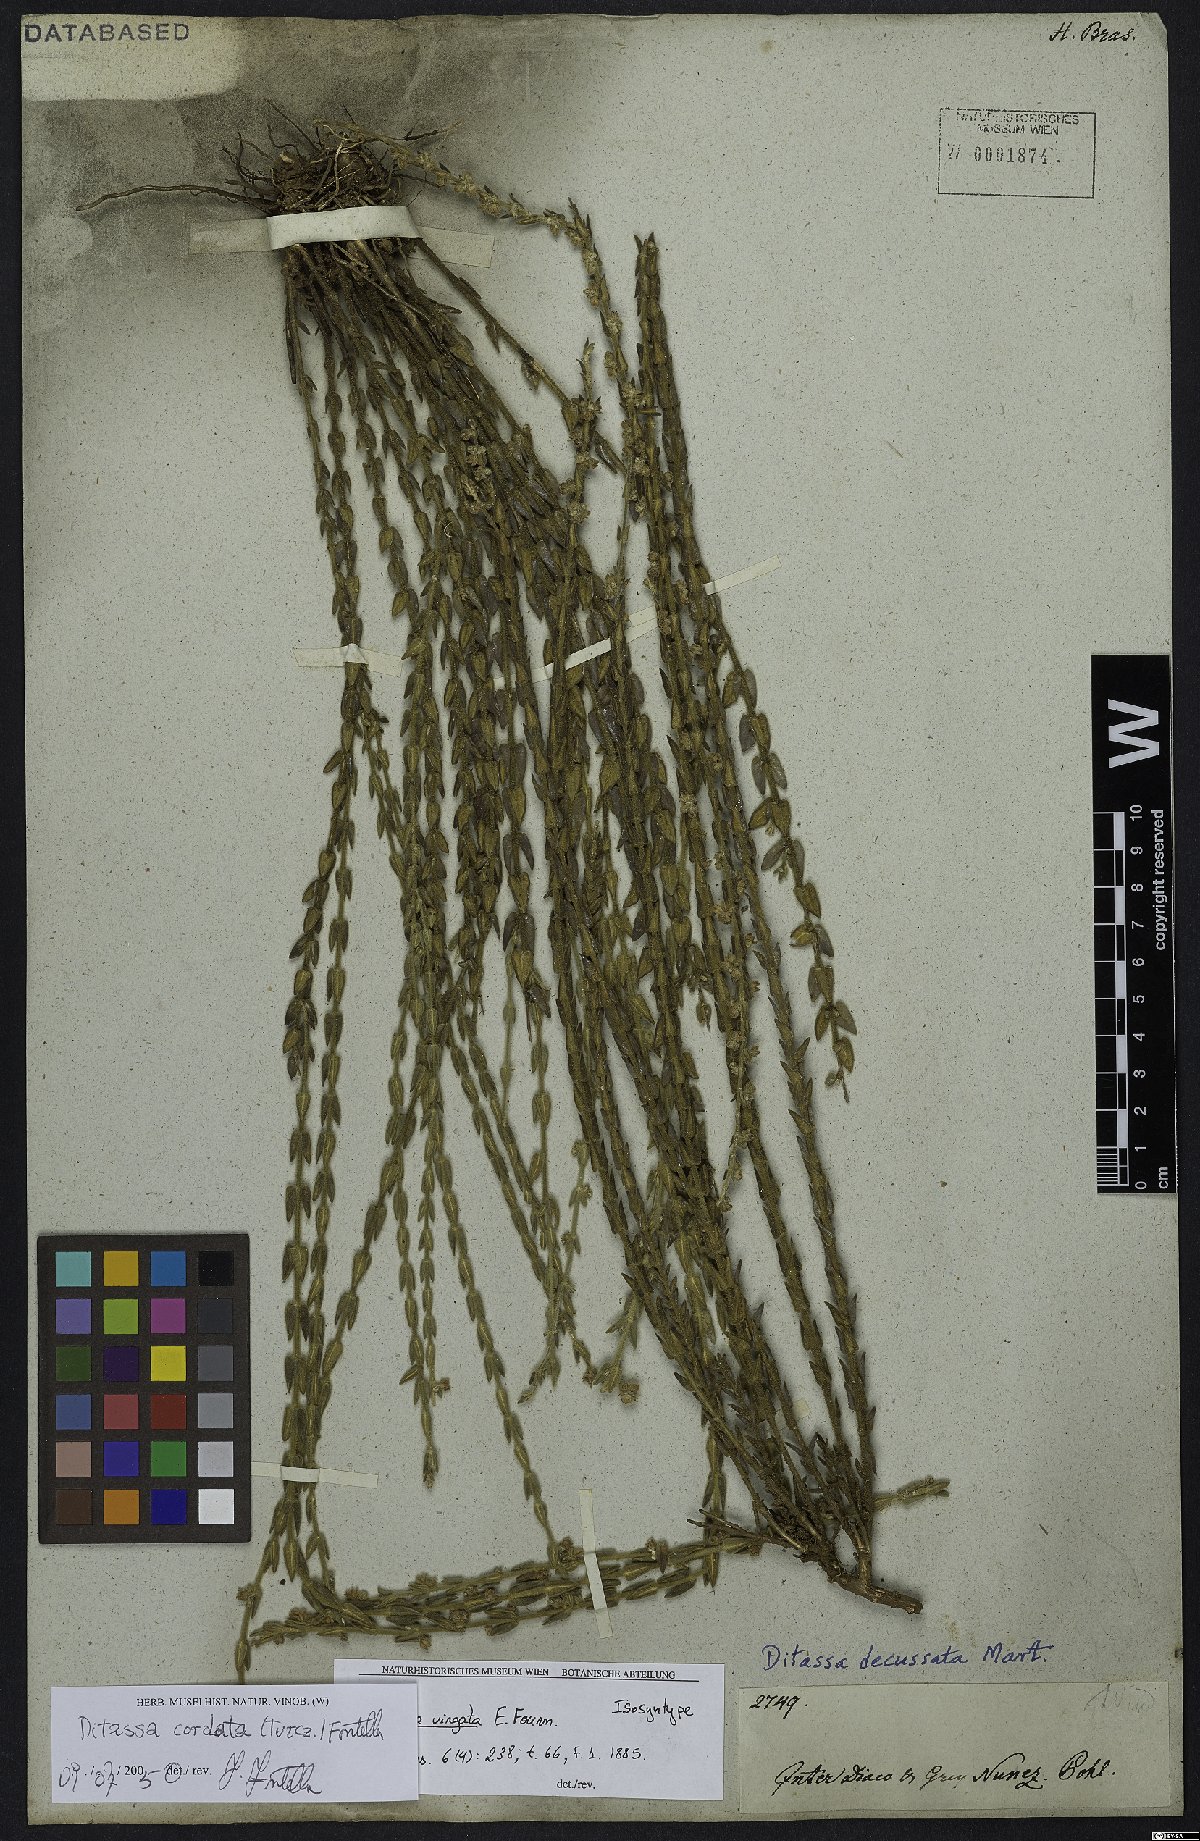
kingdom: Plantae
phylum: Tracheophyta
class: Magnoliopsida
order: Gentianales
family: Apocynaceae
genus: Minaria
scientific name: Minaria cordata
